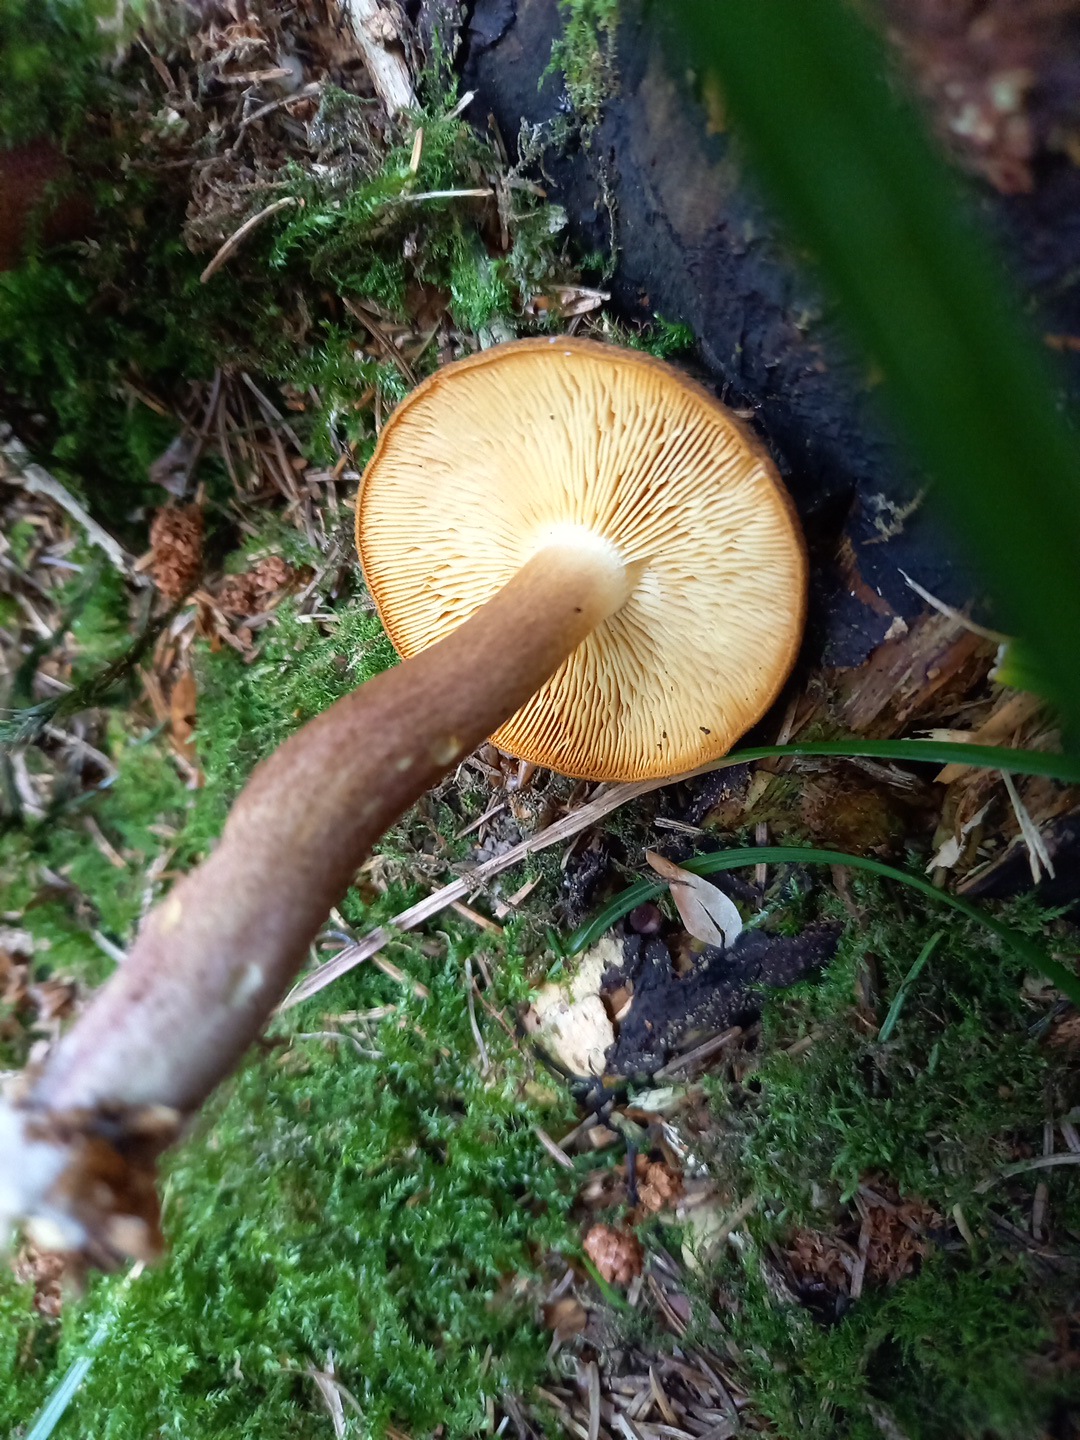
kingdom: Fungi
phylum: Basidiomycota
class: Agaricomycetes
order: Agaricales
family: Tricholomataceae
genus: Tricholomopsis
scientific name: Tricholomopsis rutilans
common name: purpur-væbnerhat
